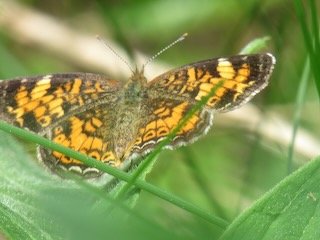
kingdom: Animalia
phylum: Arthropoda
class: Insecta
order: Lepidoptera
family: Nymphalidae
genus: Phyciodes
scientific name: Phyciodes tharos
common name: Pearl Crescent
